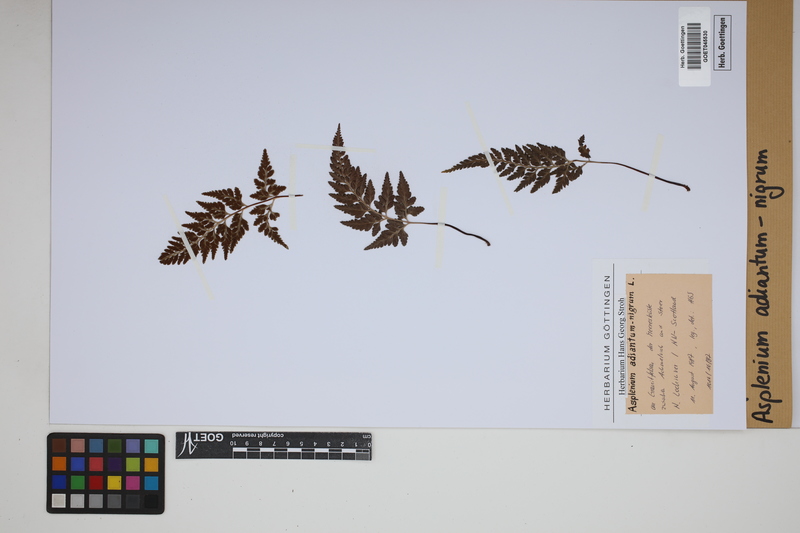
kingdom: Plantae
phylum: Tracheophyta
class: Polypodiopsida
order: Polypodiales
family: Aspleniaceae
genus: Asplenium
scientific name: Asplenium adiantum-nigrum
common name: Black spleenwort
